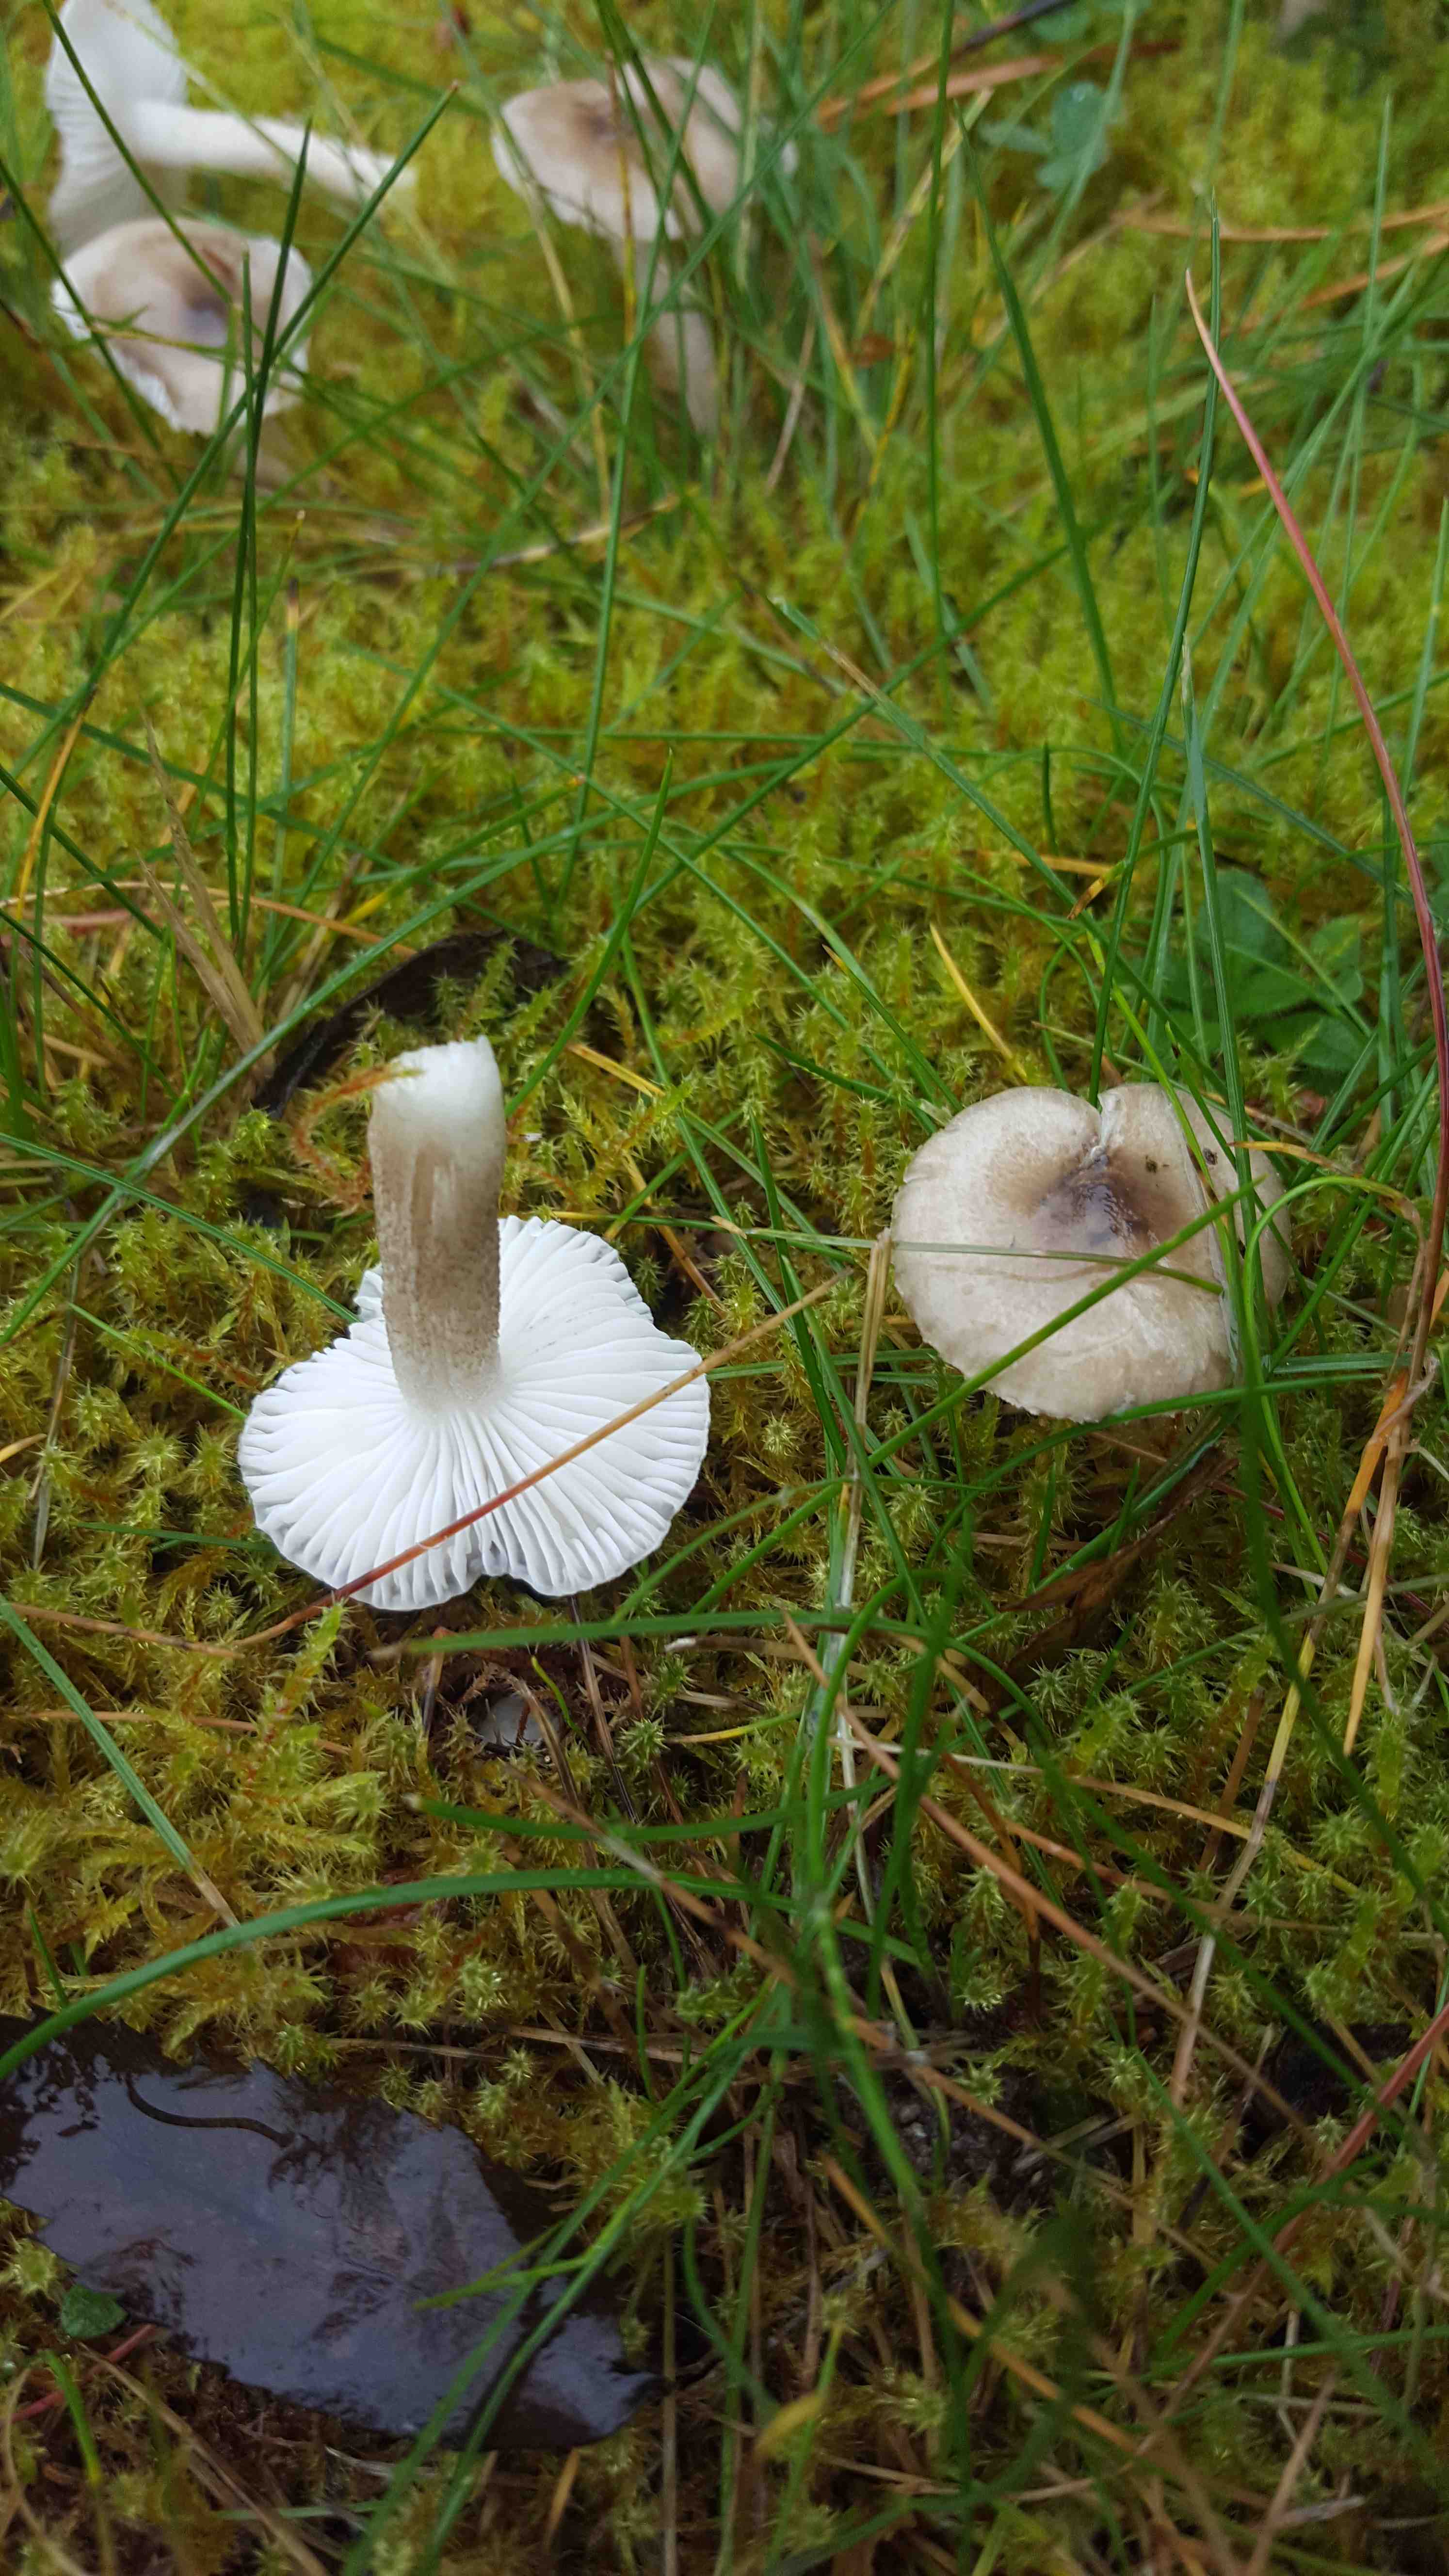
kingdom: Fungi
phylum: Basidiomycota
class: Agaricomycetes
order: Agaricales
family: Hygrophoraceae
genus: Hygrophorus
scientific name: Hygrophorus agathosmus
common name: vellugtende sneglehat
